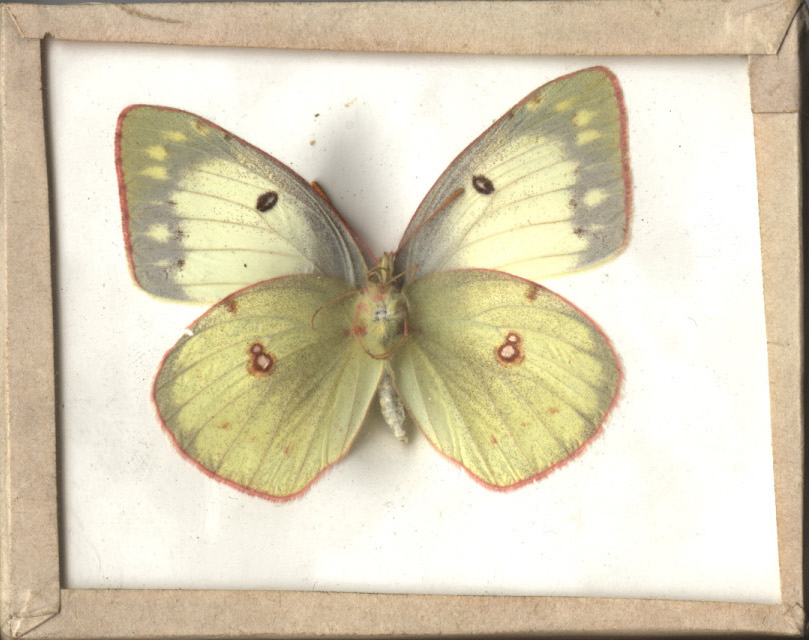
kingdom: Animalia
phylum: Arthropoda
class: Insecta
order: Lepidoptera
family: Pieridae
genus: Colias
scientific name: Colias philodice
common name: Clouded Sulphur
